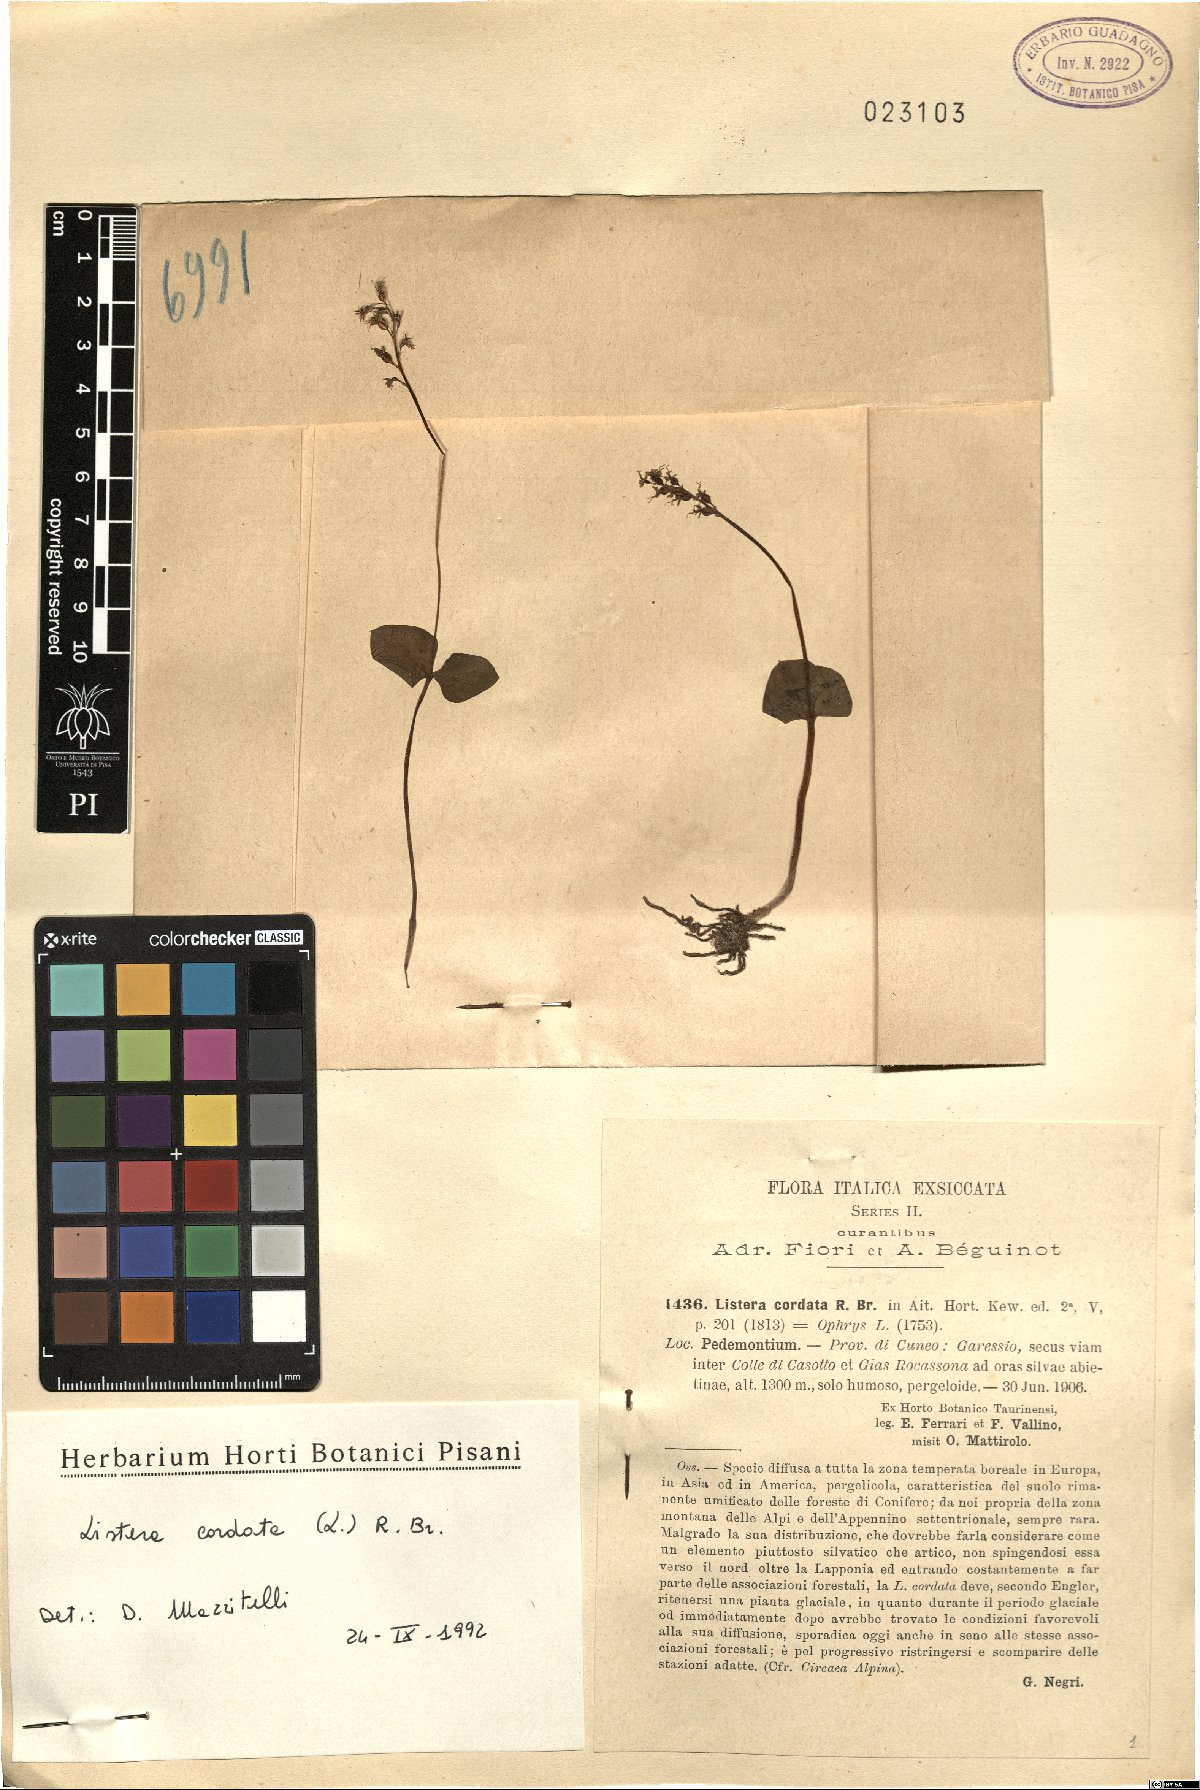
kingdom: Plantae
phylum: Tracheophyta
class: Liliopsida
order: Asparagales
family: Orchidaceae
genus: Neottia
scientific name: Neottia cordata
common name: Lesser twayblade
